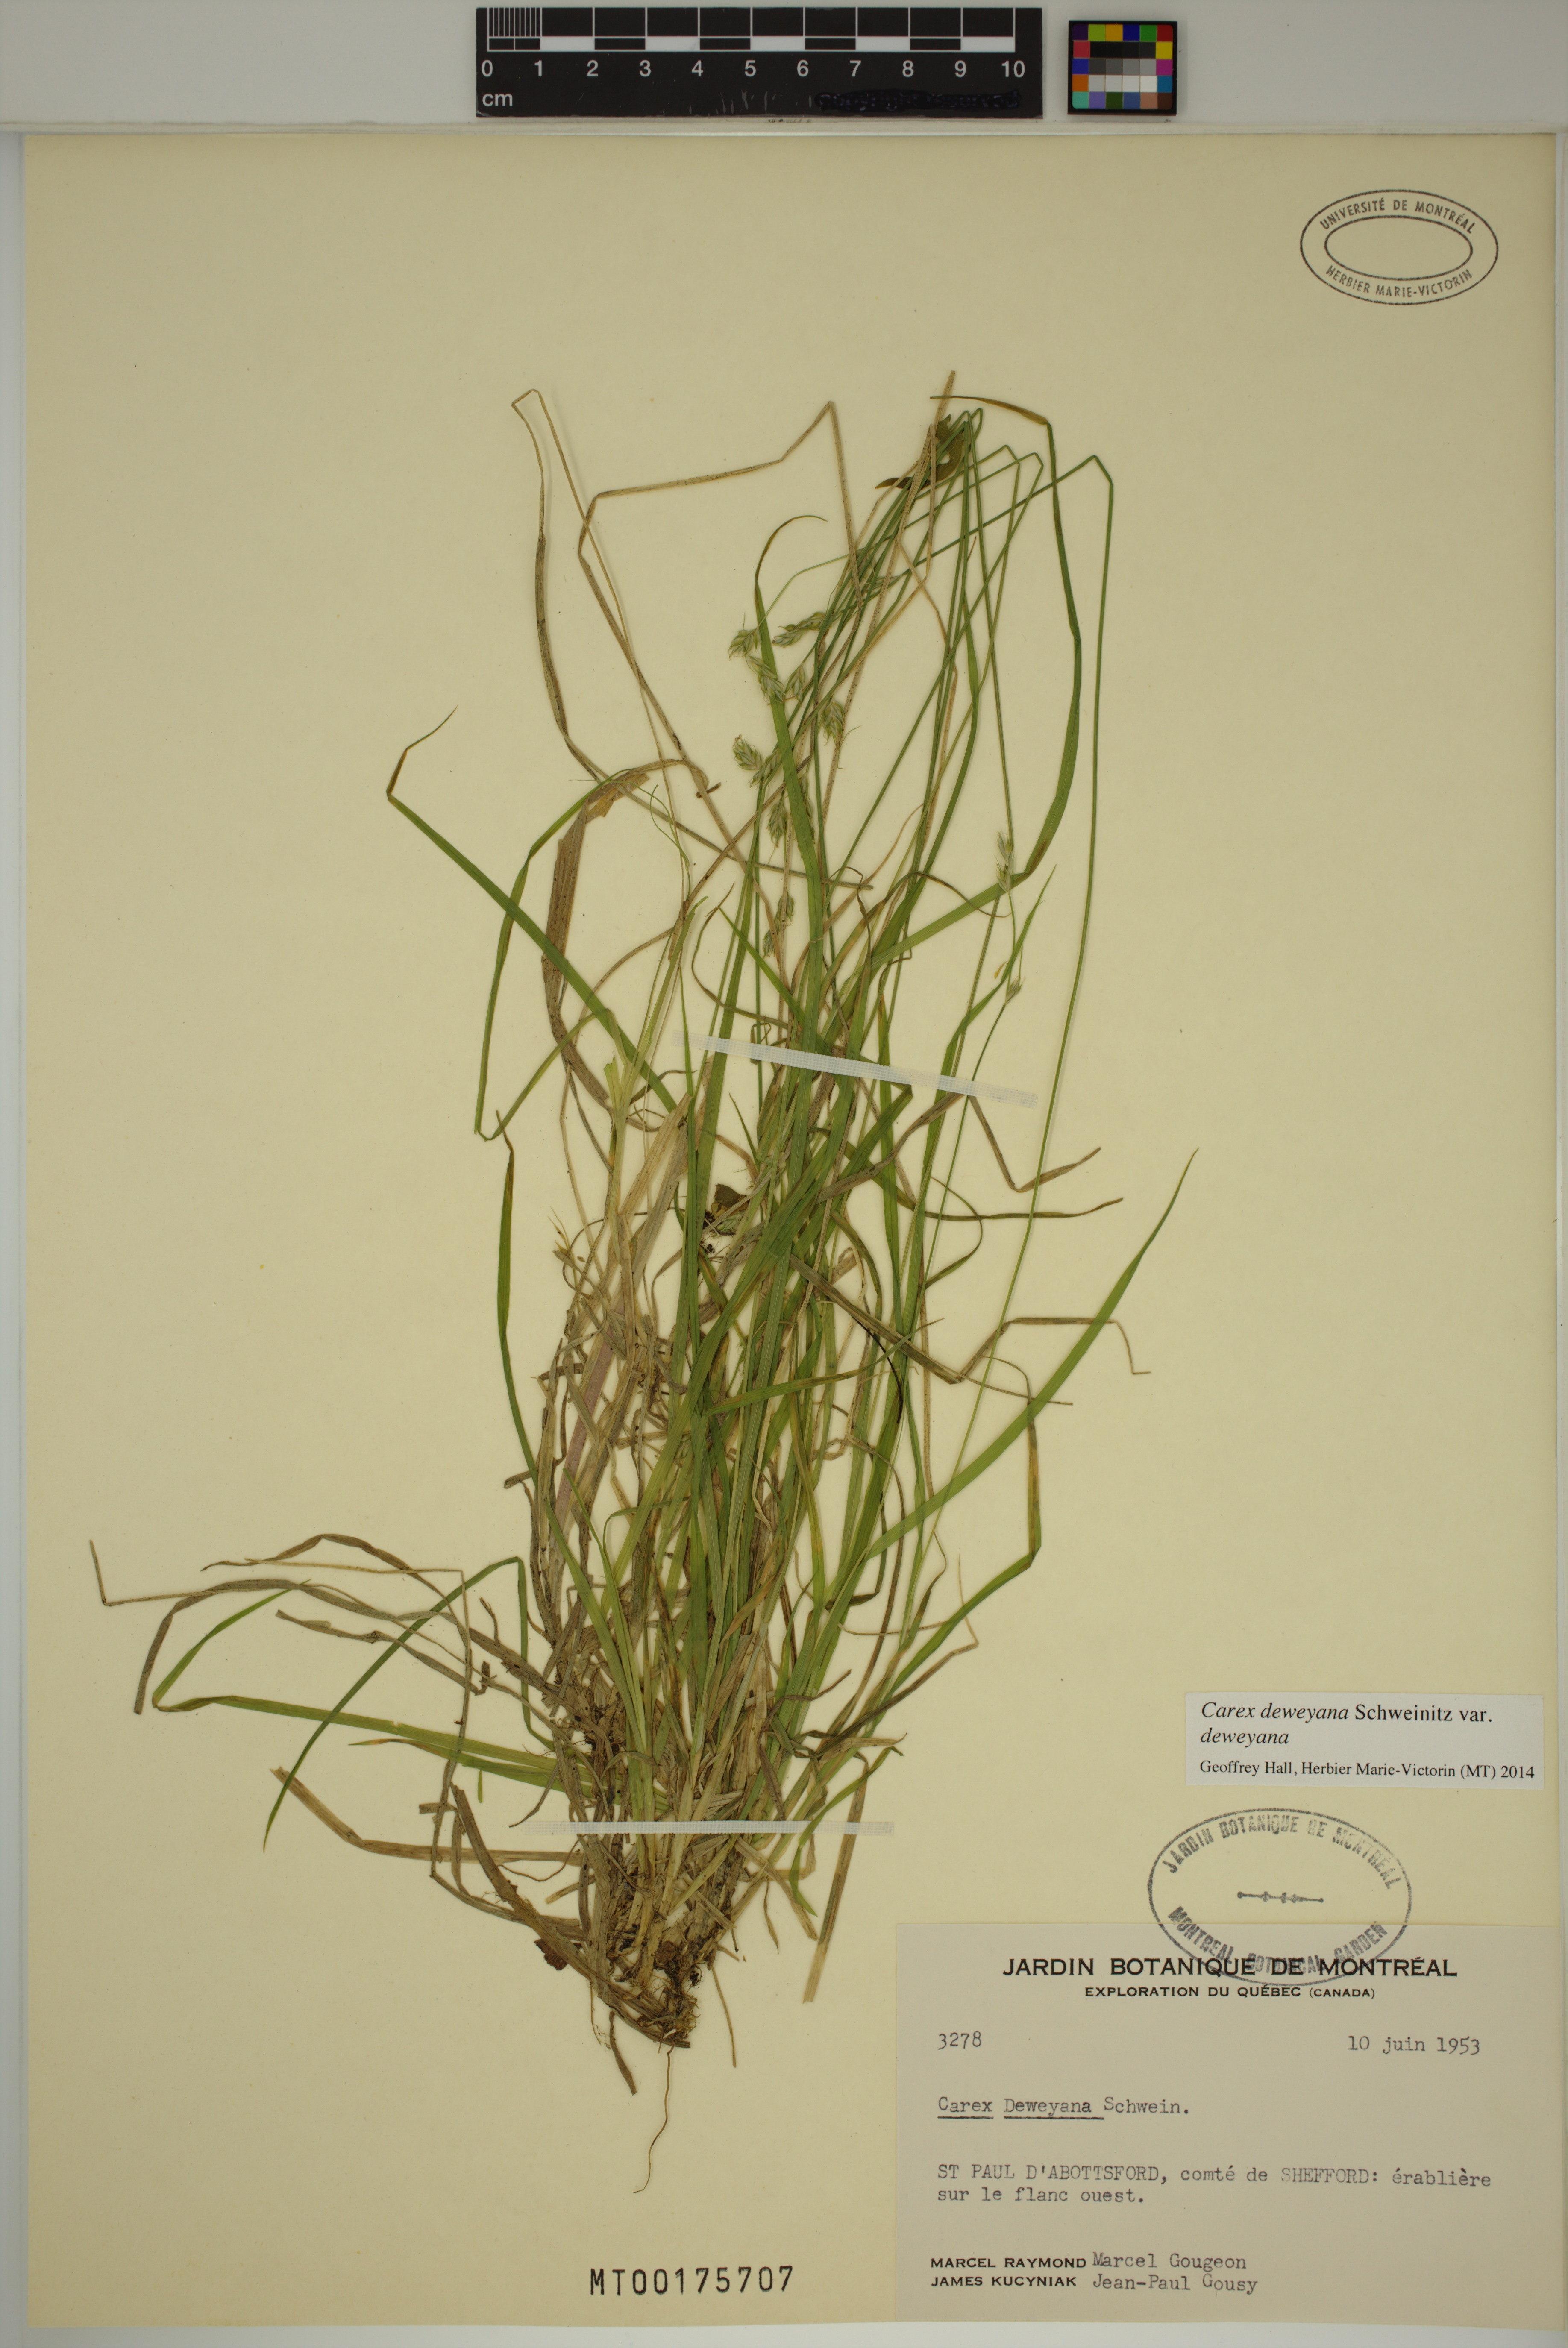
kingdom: Plantae
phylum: Tracheophyta
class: Liliopsida
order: Poales
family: Cyperaceae
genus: Carex
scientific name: Carex deweyana
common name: Dewey's sedge
